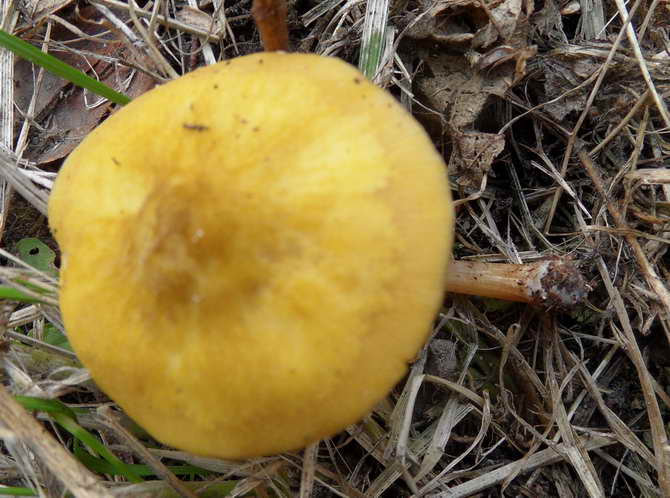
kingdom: Fungi
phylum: Basidiomycota
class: Agaricomycetes
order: Agaricales
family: Pluteaceae
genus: Pluteus
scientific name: Pluteus leoninus
